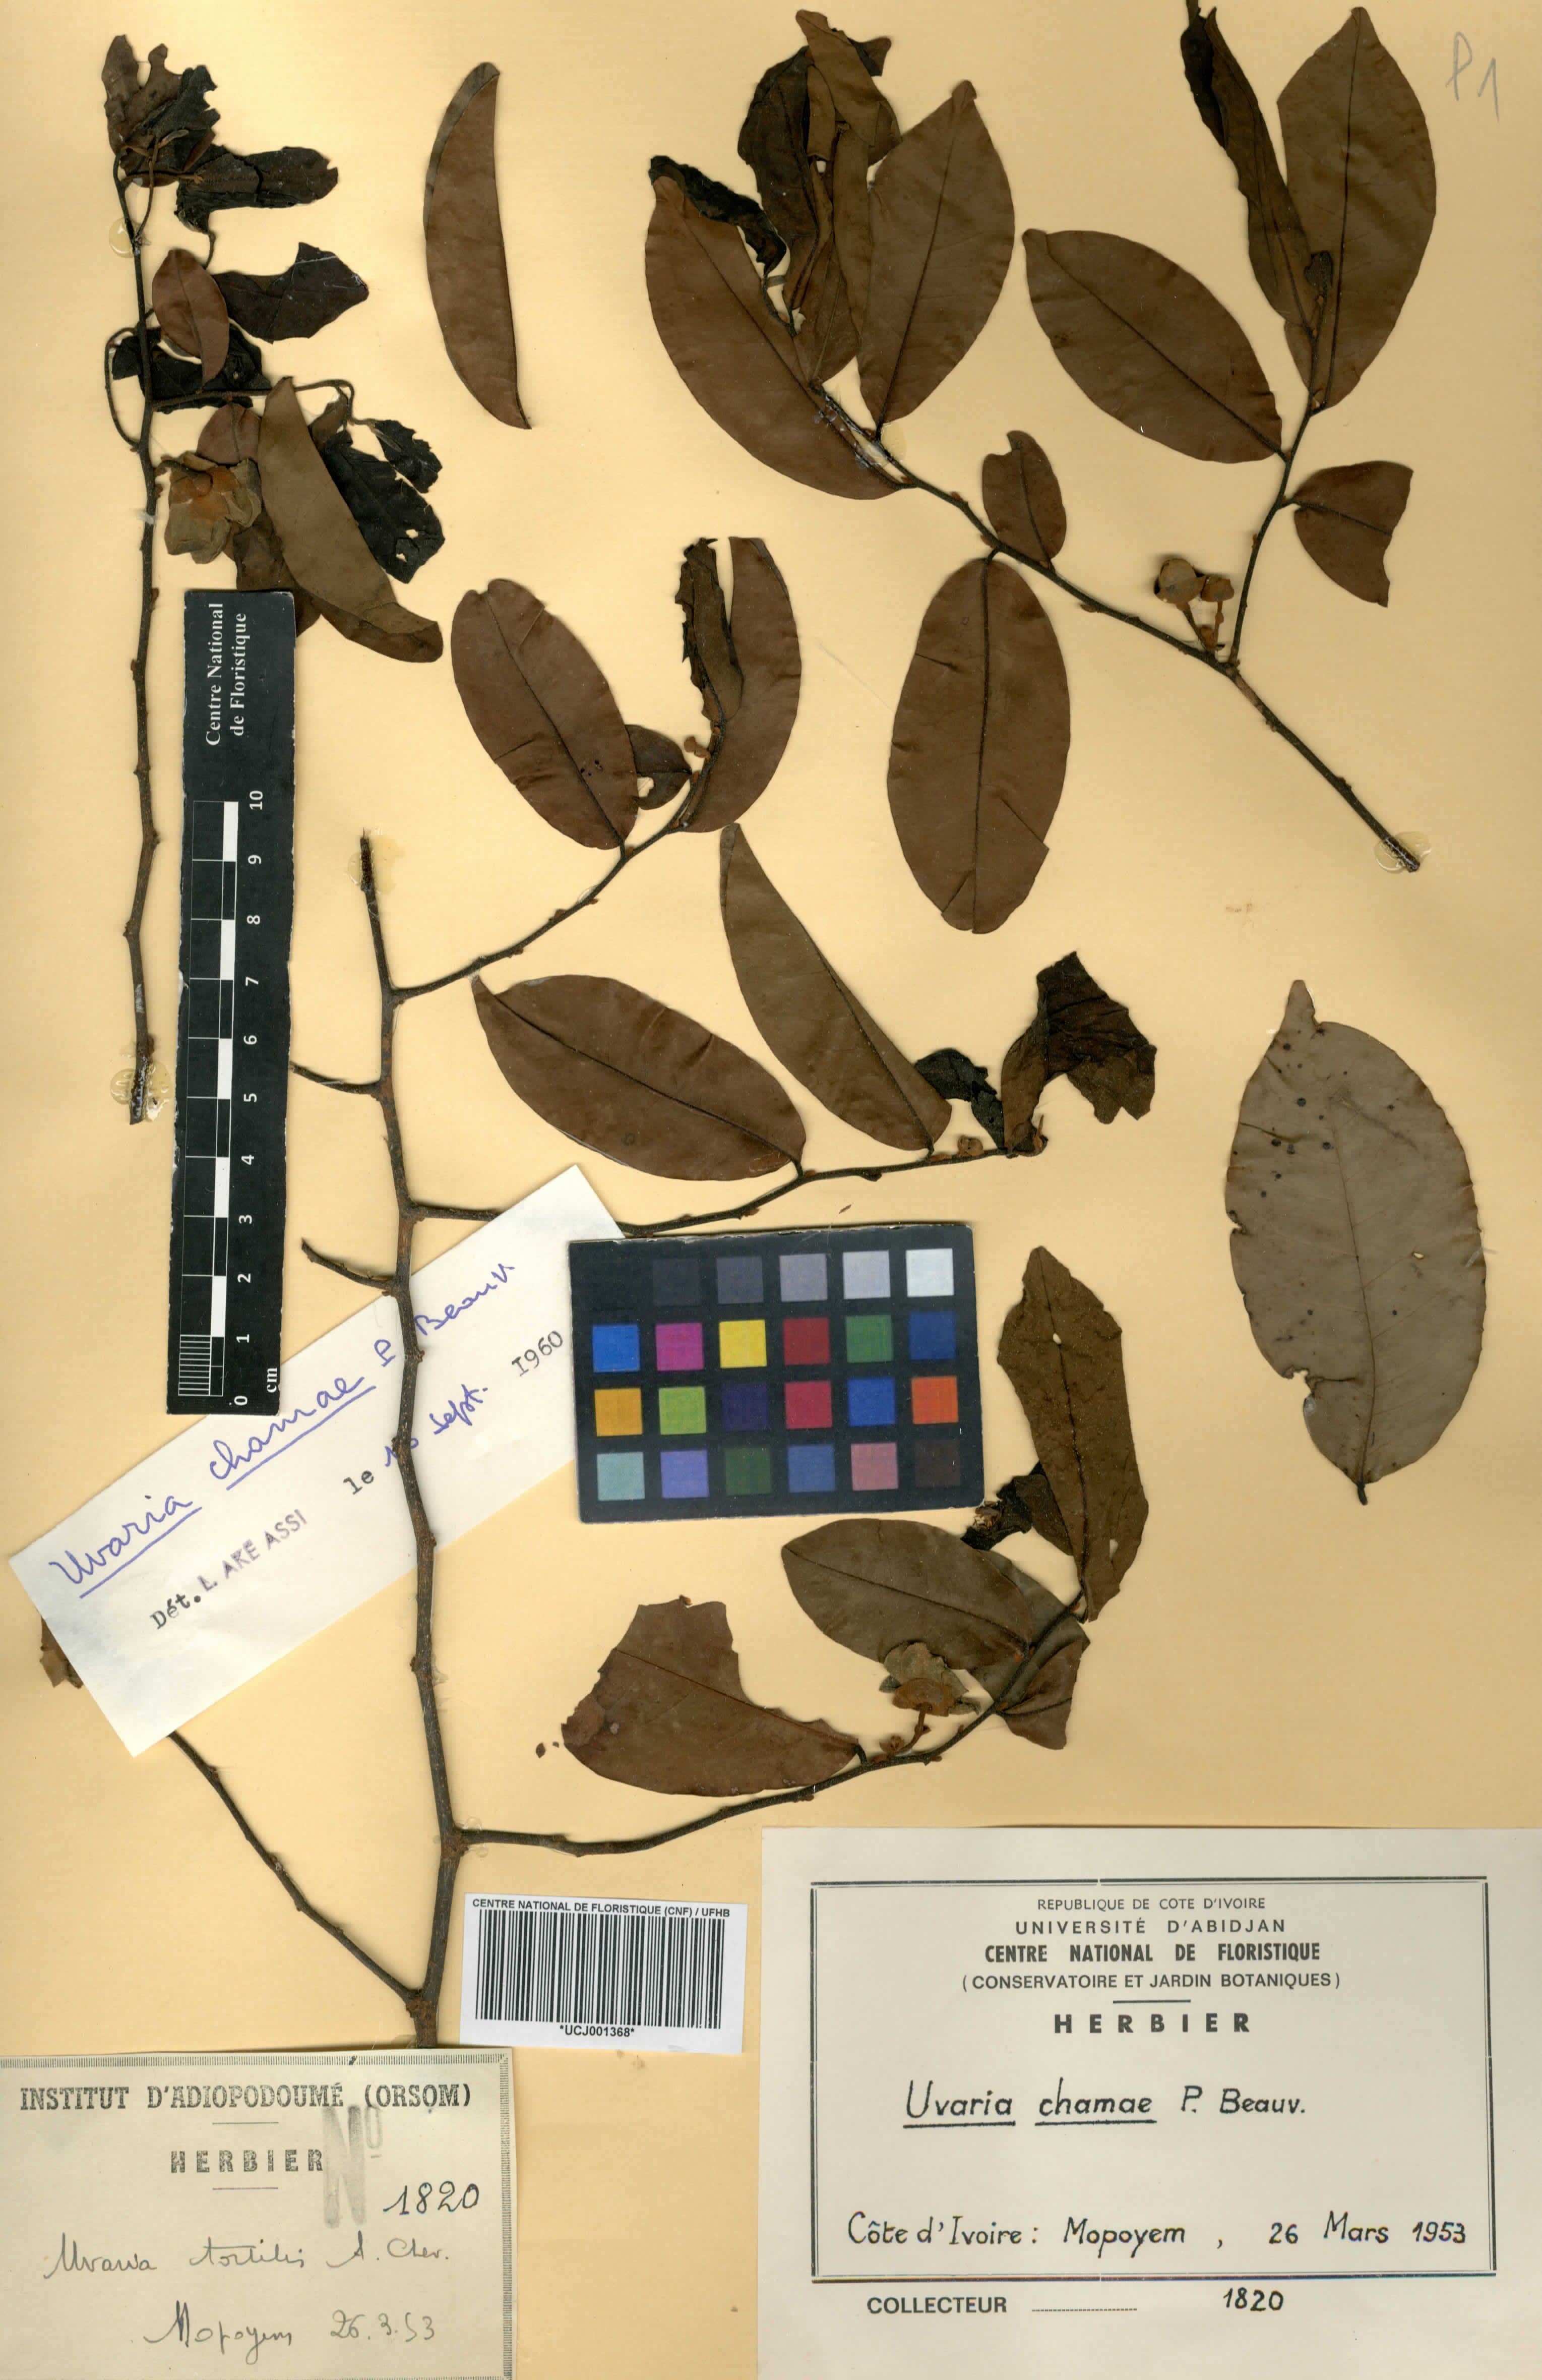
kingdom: Plantae
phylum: Tracheophyta
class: Magnoliopsida
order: Magnoliales
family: Annonaceae
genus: Uvaria
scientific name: Uvaria chamae
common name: Finger-root
